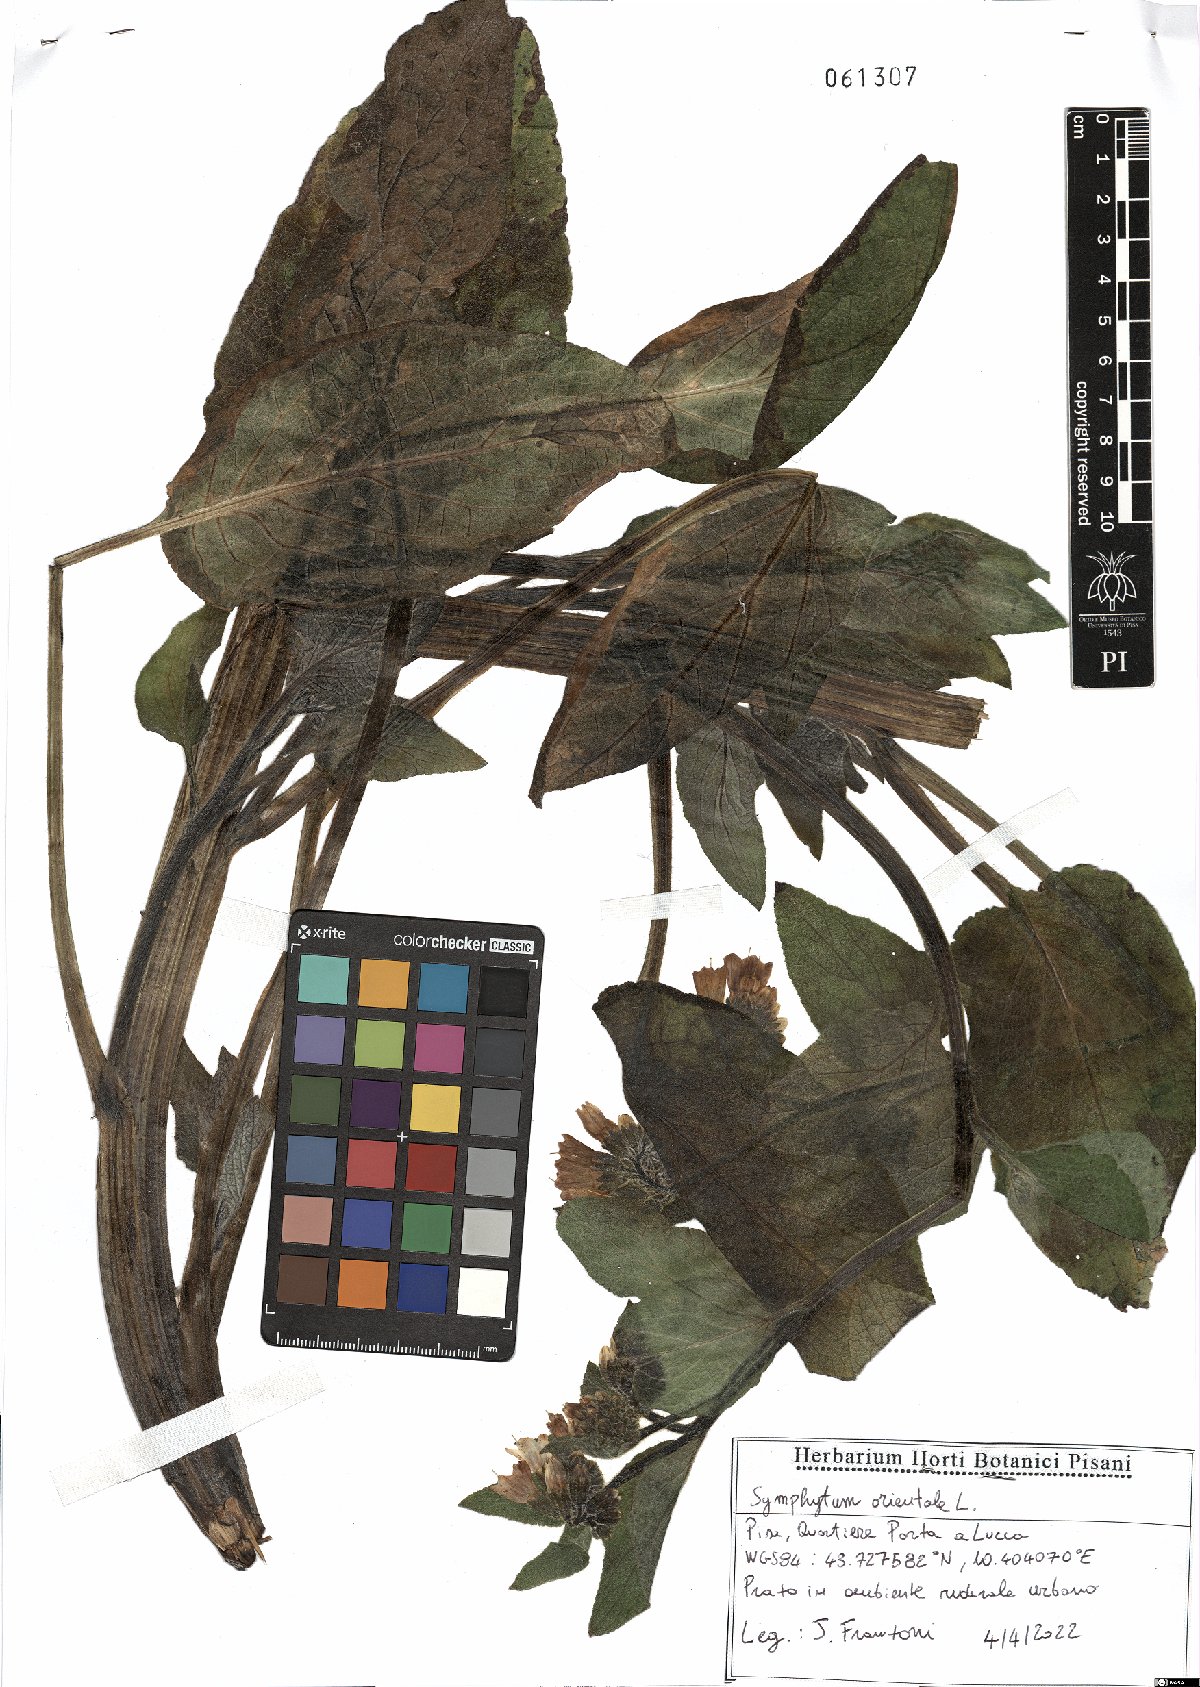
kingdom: Plantae
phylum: Tracheophyta
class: Magnoliopsida
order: Boraginales
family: Boraginaceae
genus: Symphytum
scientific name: Symphytum orientale
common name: White comfrey
